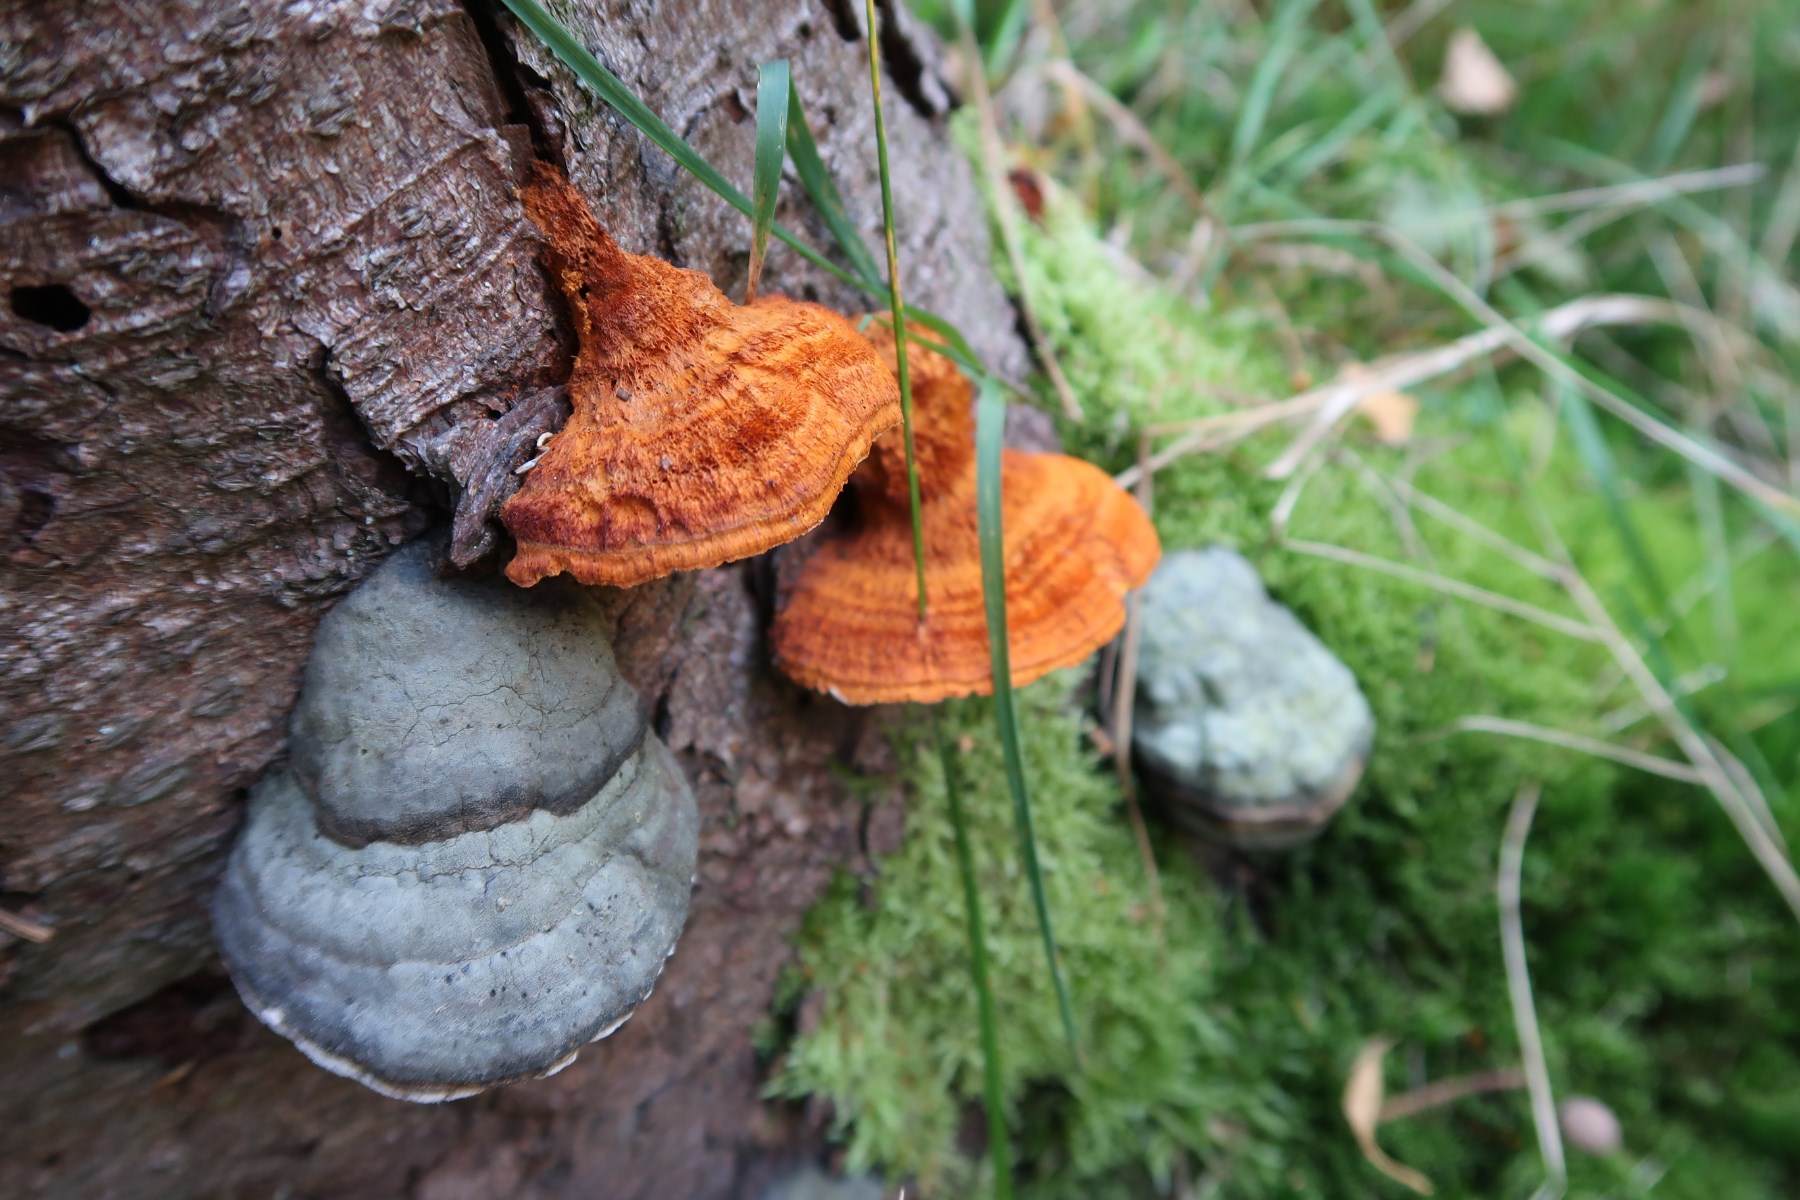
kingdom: Fungi
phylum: Basidiomycota
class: Agaricomycetes
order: Polyporales
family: Pycnoporellaceae
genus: Pycnoporellus
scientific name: Pycnoporellus fulgens
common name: flammeporesvamp
